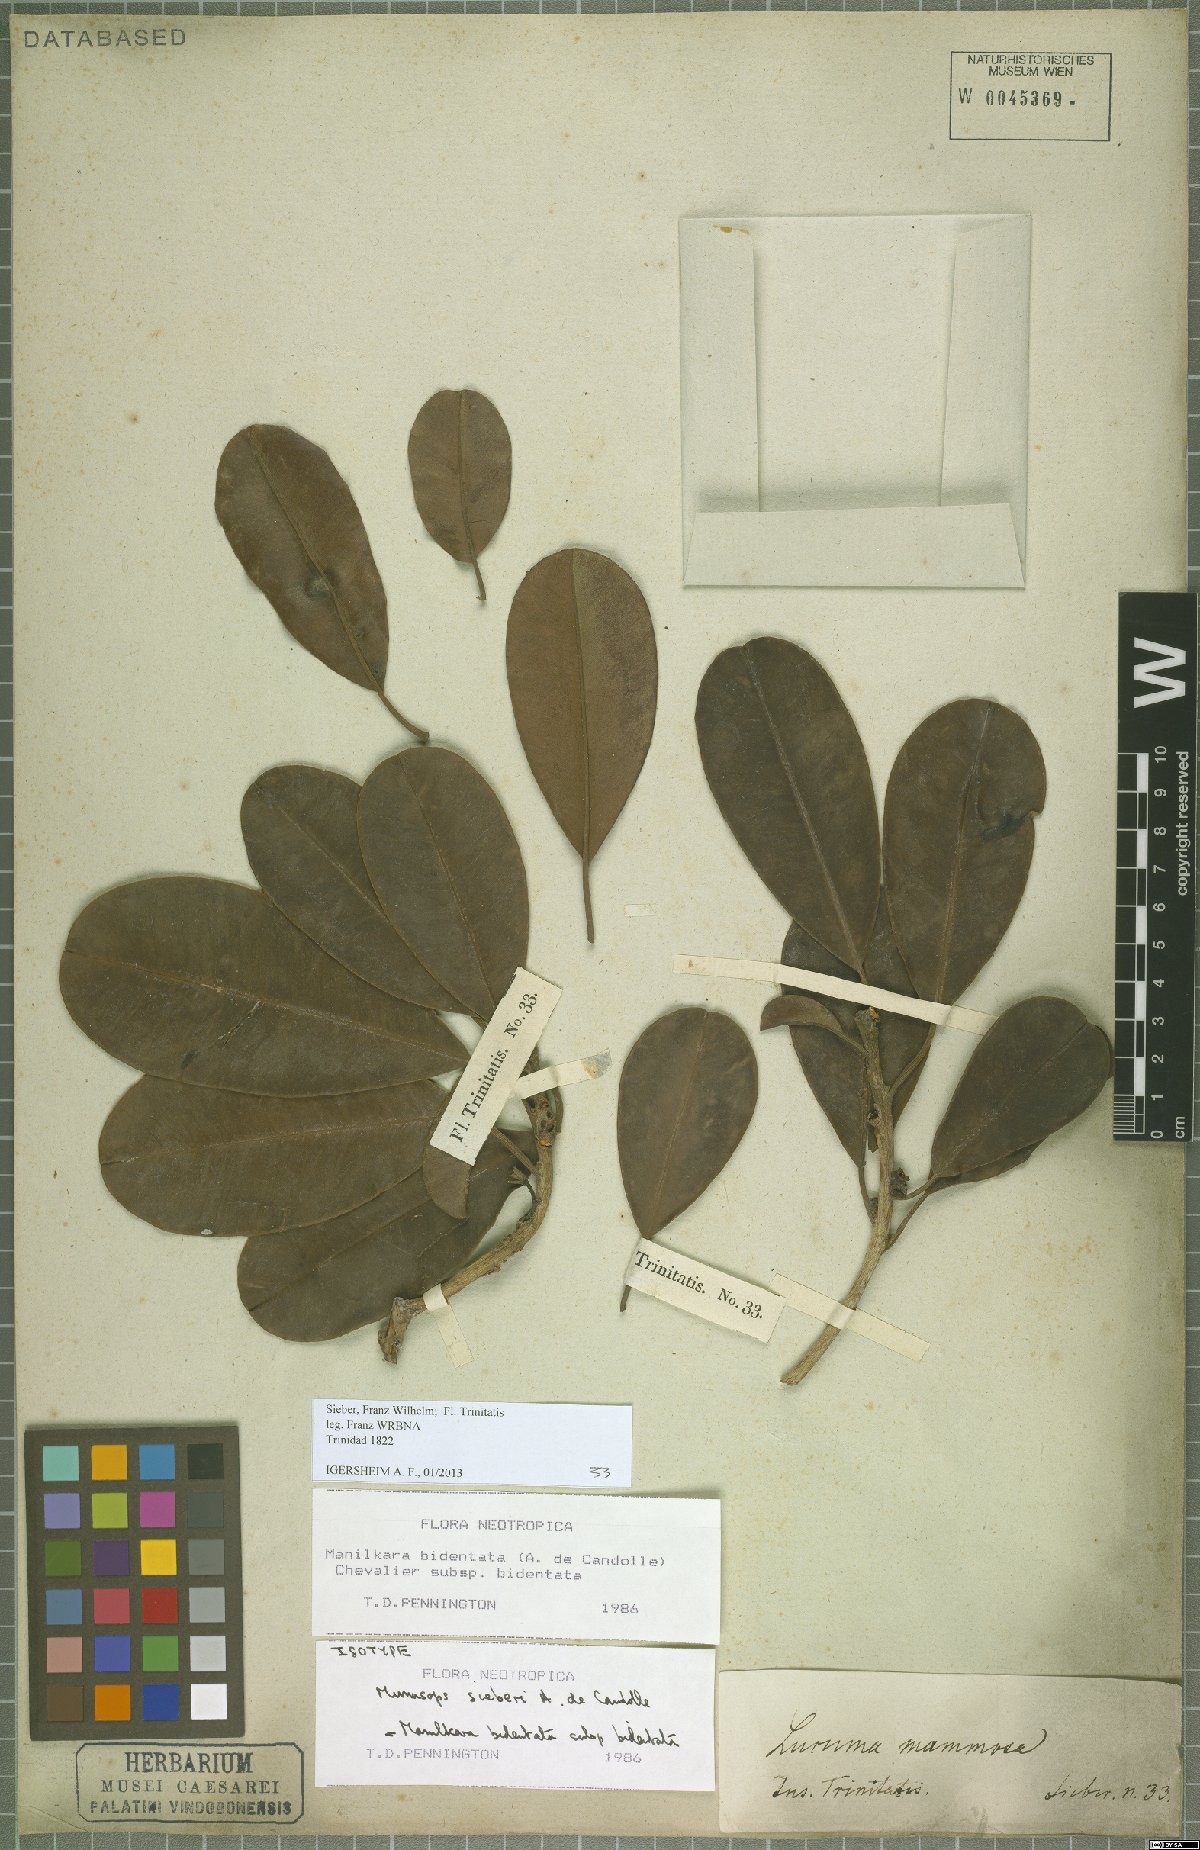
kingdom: Plantae
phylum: Tracheophyta
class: Magnoliopsida
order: Ericales
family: Sapotaceae
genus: Manilkara
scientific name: Manilkara bidentata
